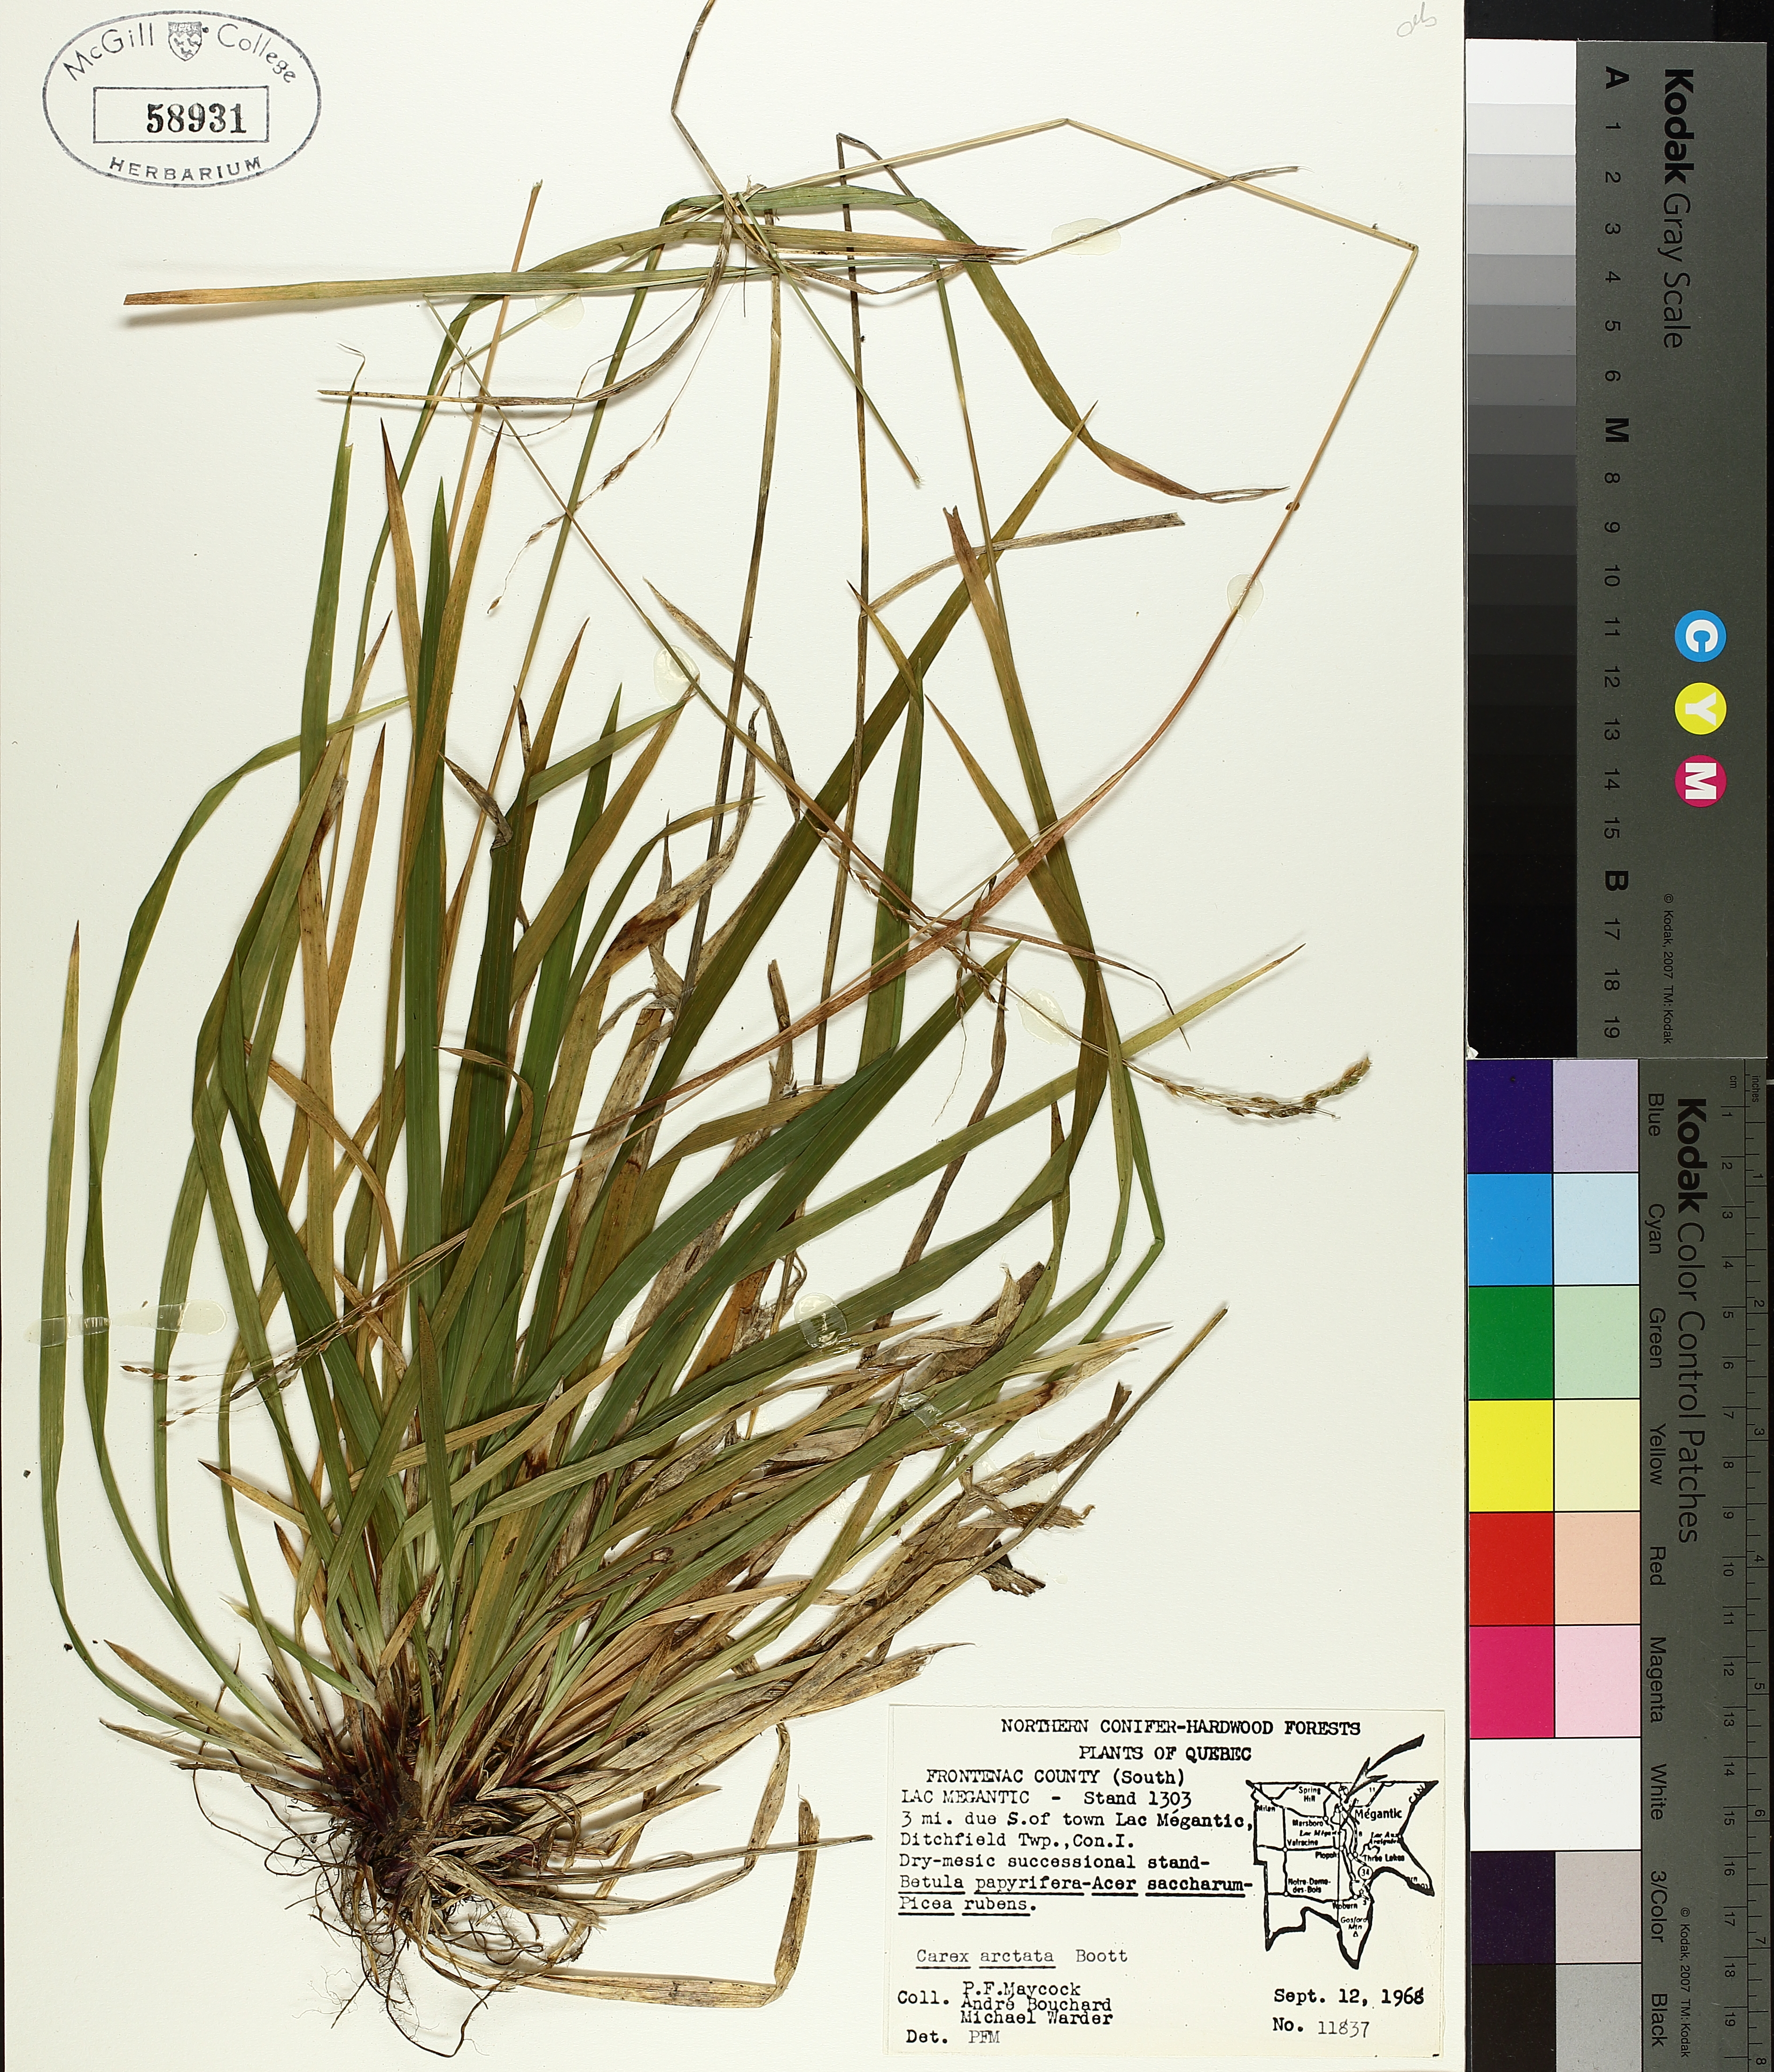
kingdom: Plantae
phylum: Tracheophyta
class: Liliopsida
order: Poales
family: Cyperaceae
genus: Carex
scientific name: Carex arctata
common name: Black sedge
